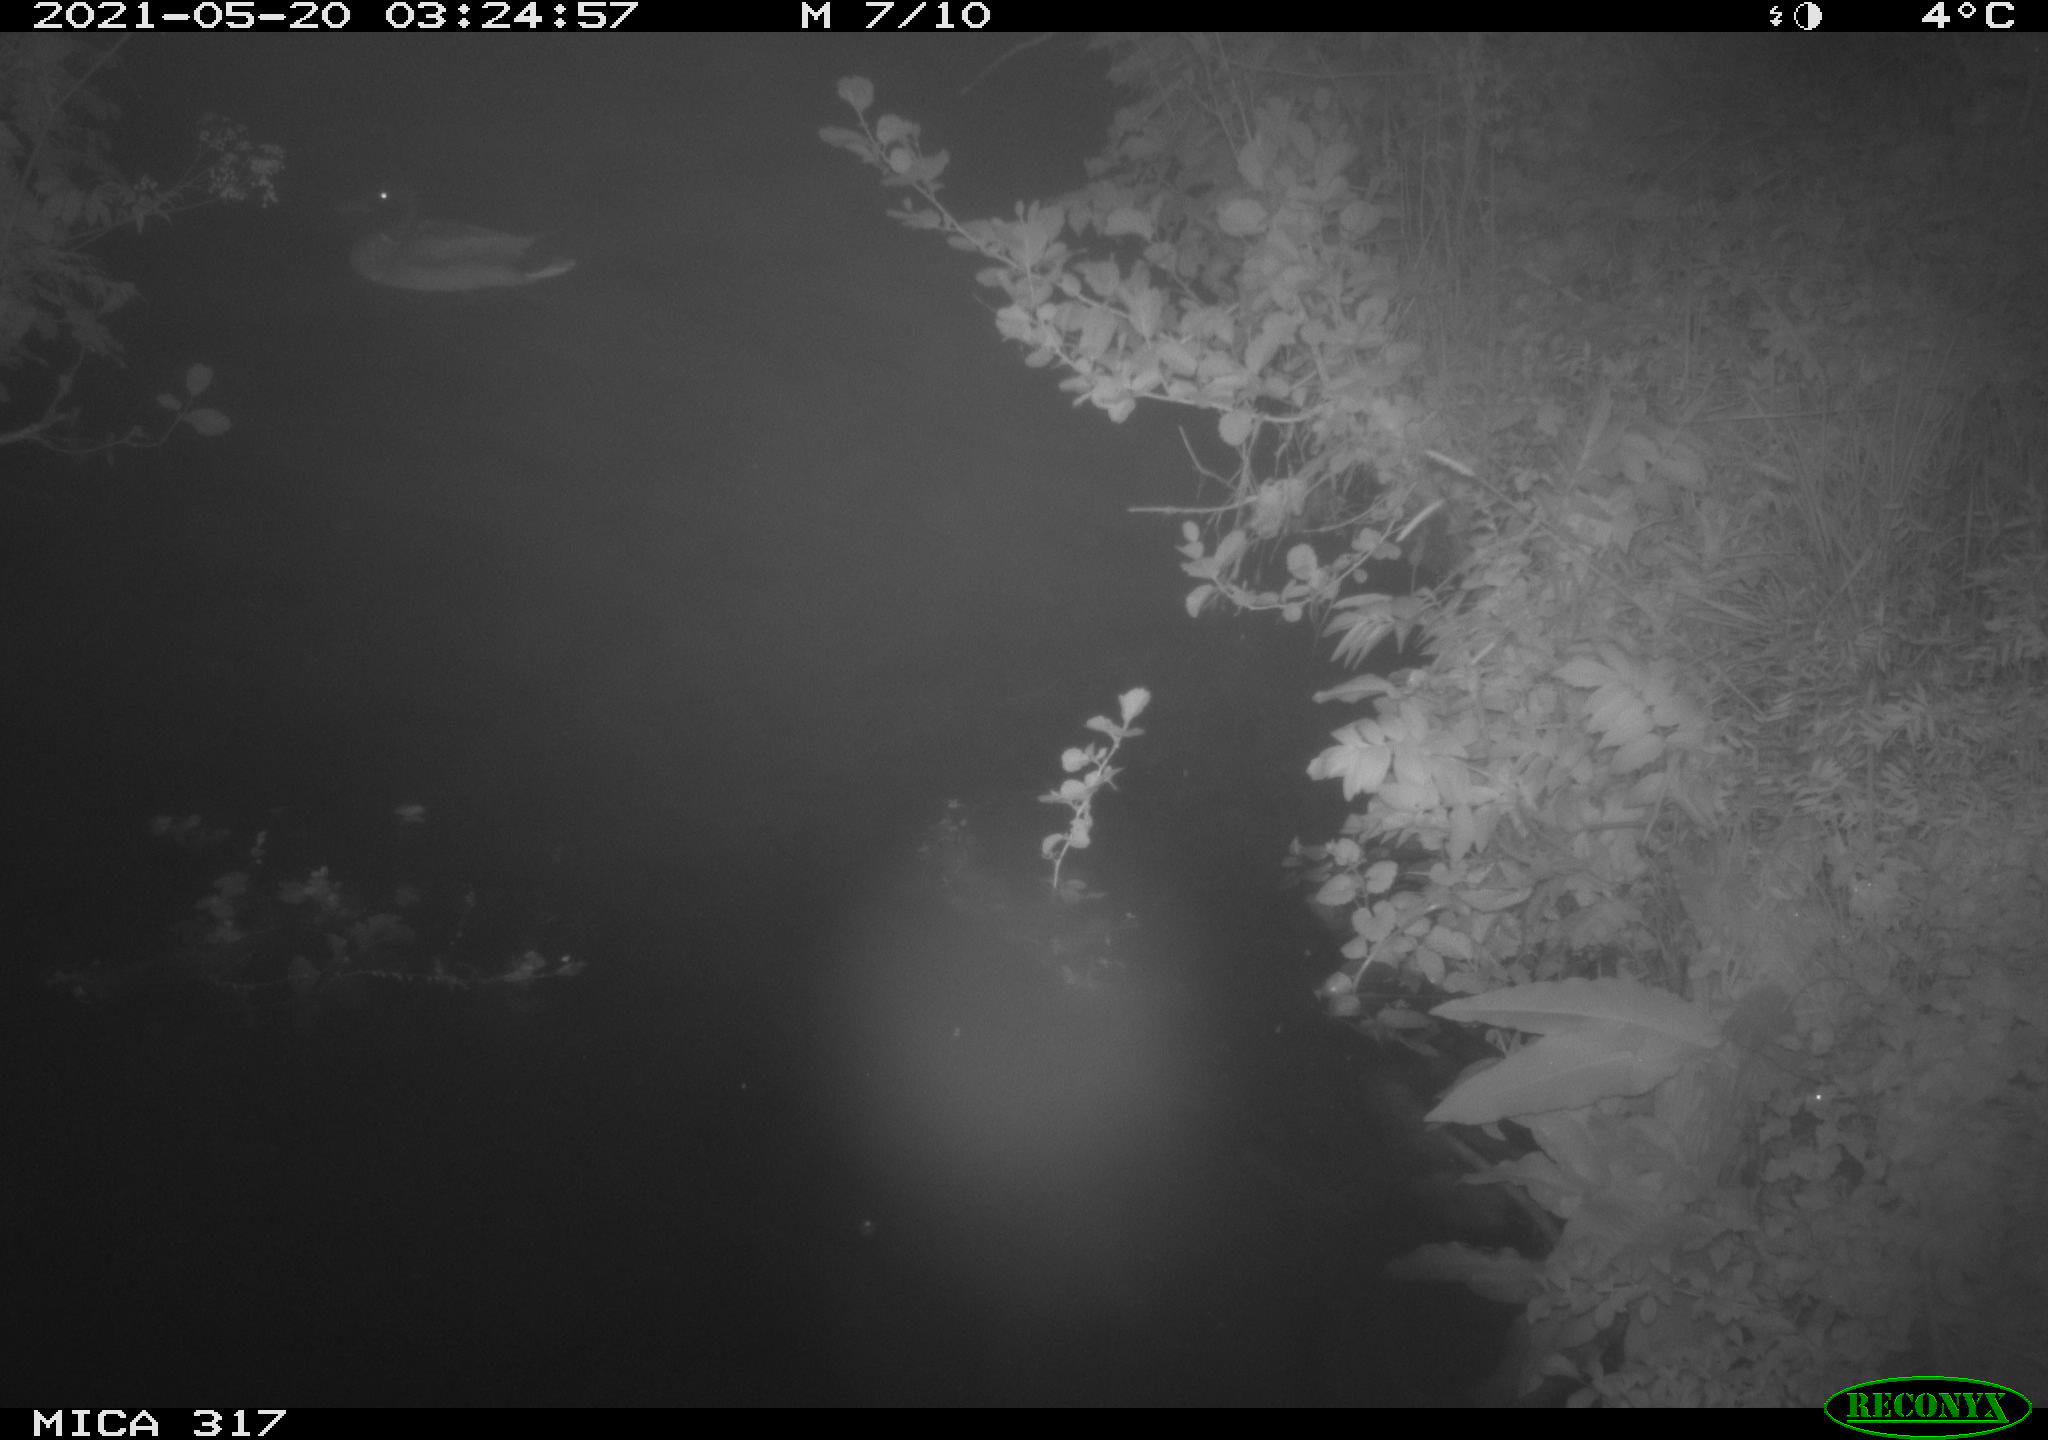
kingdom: Animalia
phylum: Chordata
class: Aves
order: Anseriformes
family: Anatidae
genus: Anas
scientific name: Anas
